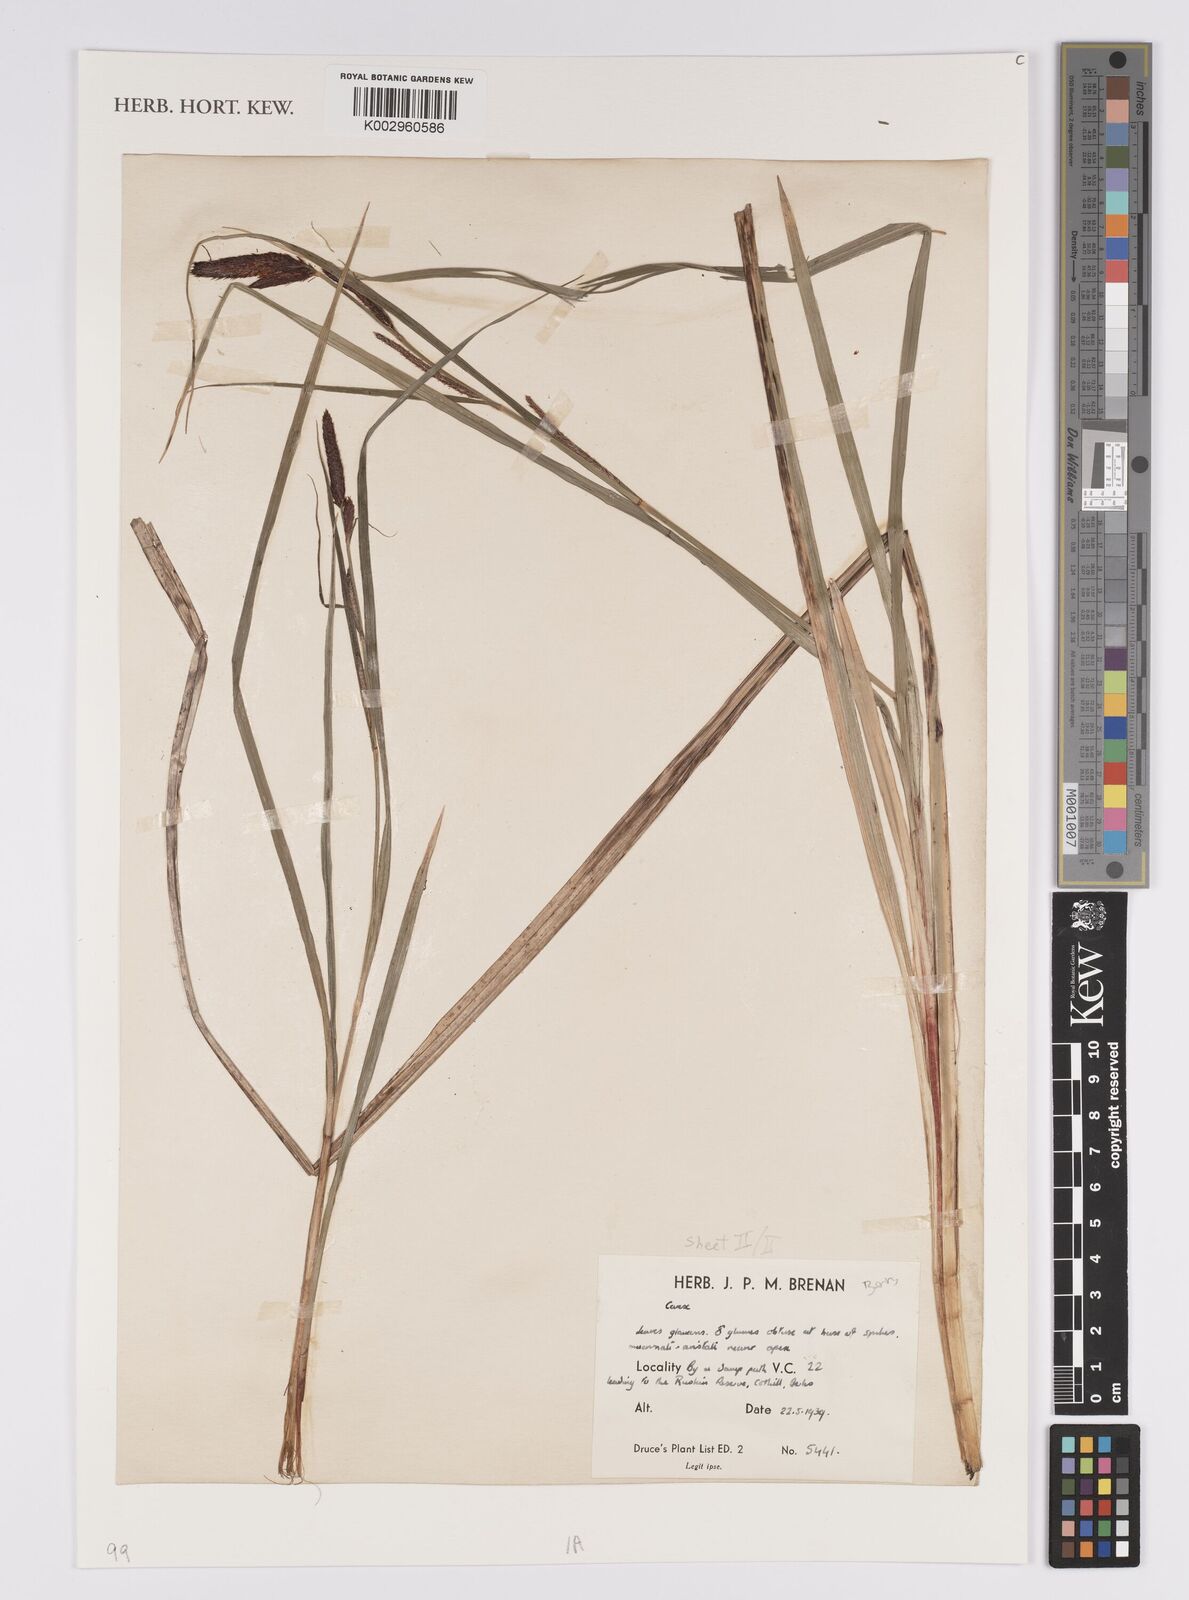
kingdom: Plantae
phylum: Tracheophyta
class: Liliopsida
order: Poales
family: Cyperaceae
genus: Carex
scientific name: Carex acutiformis
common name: Lesser pond-sedge
